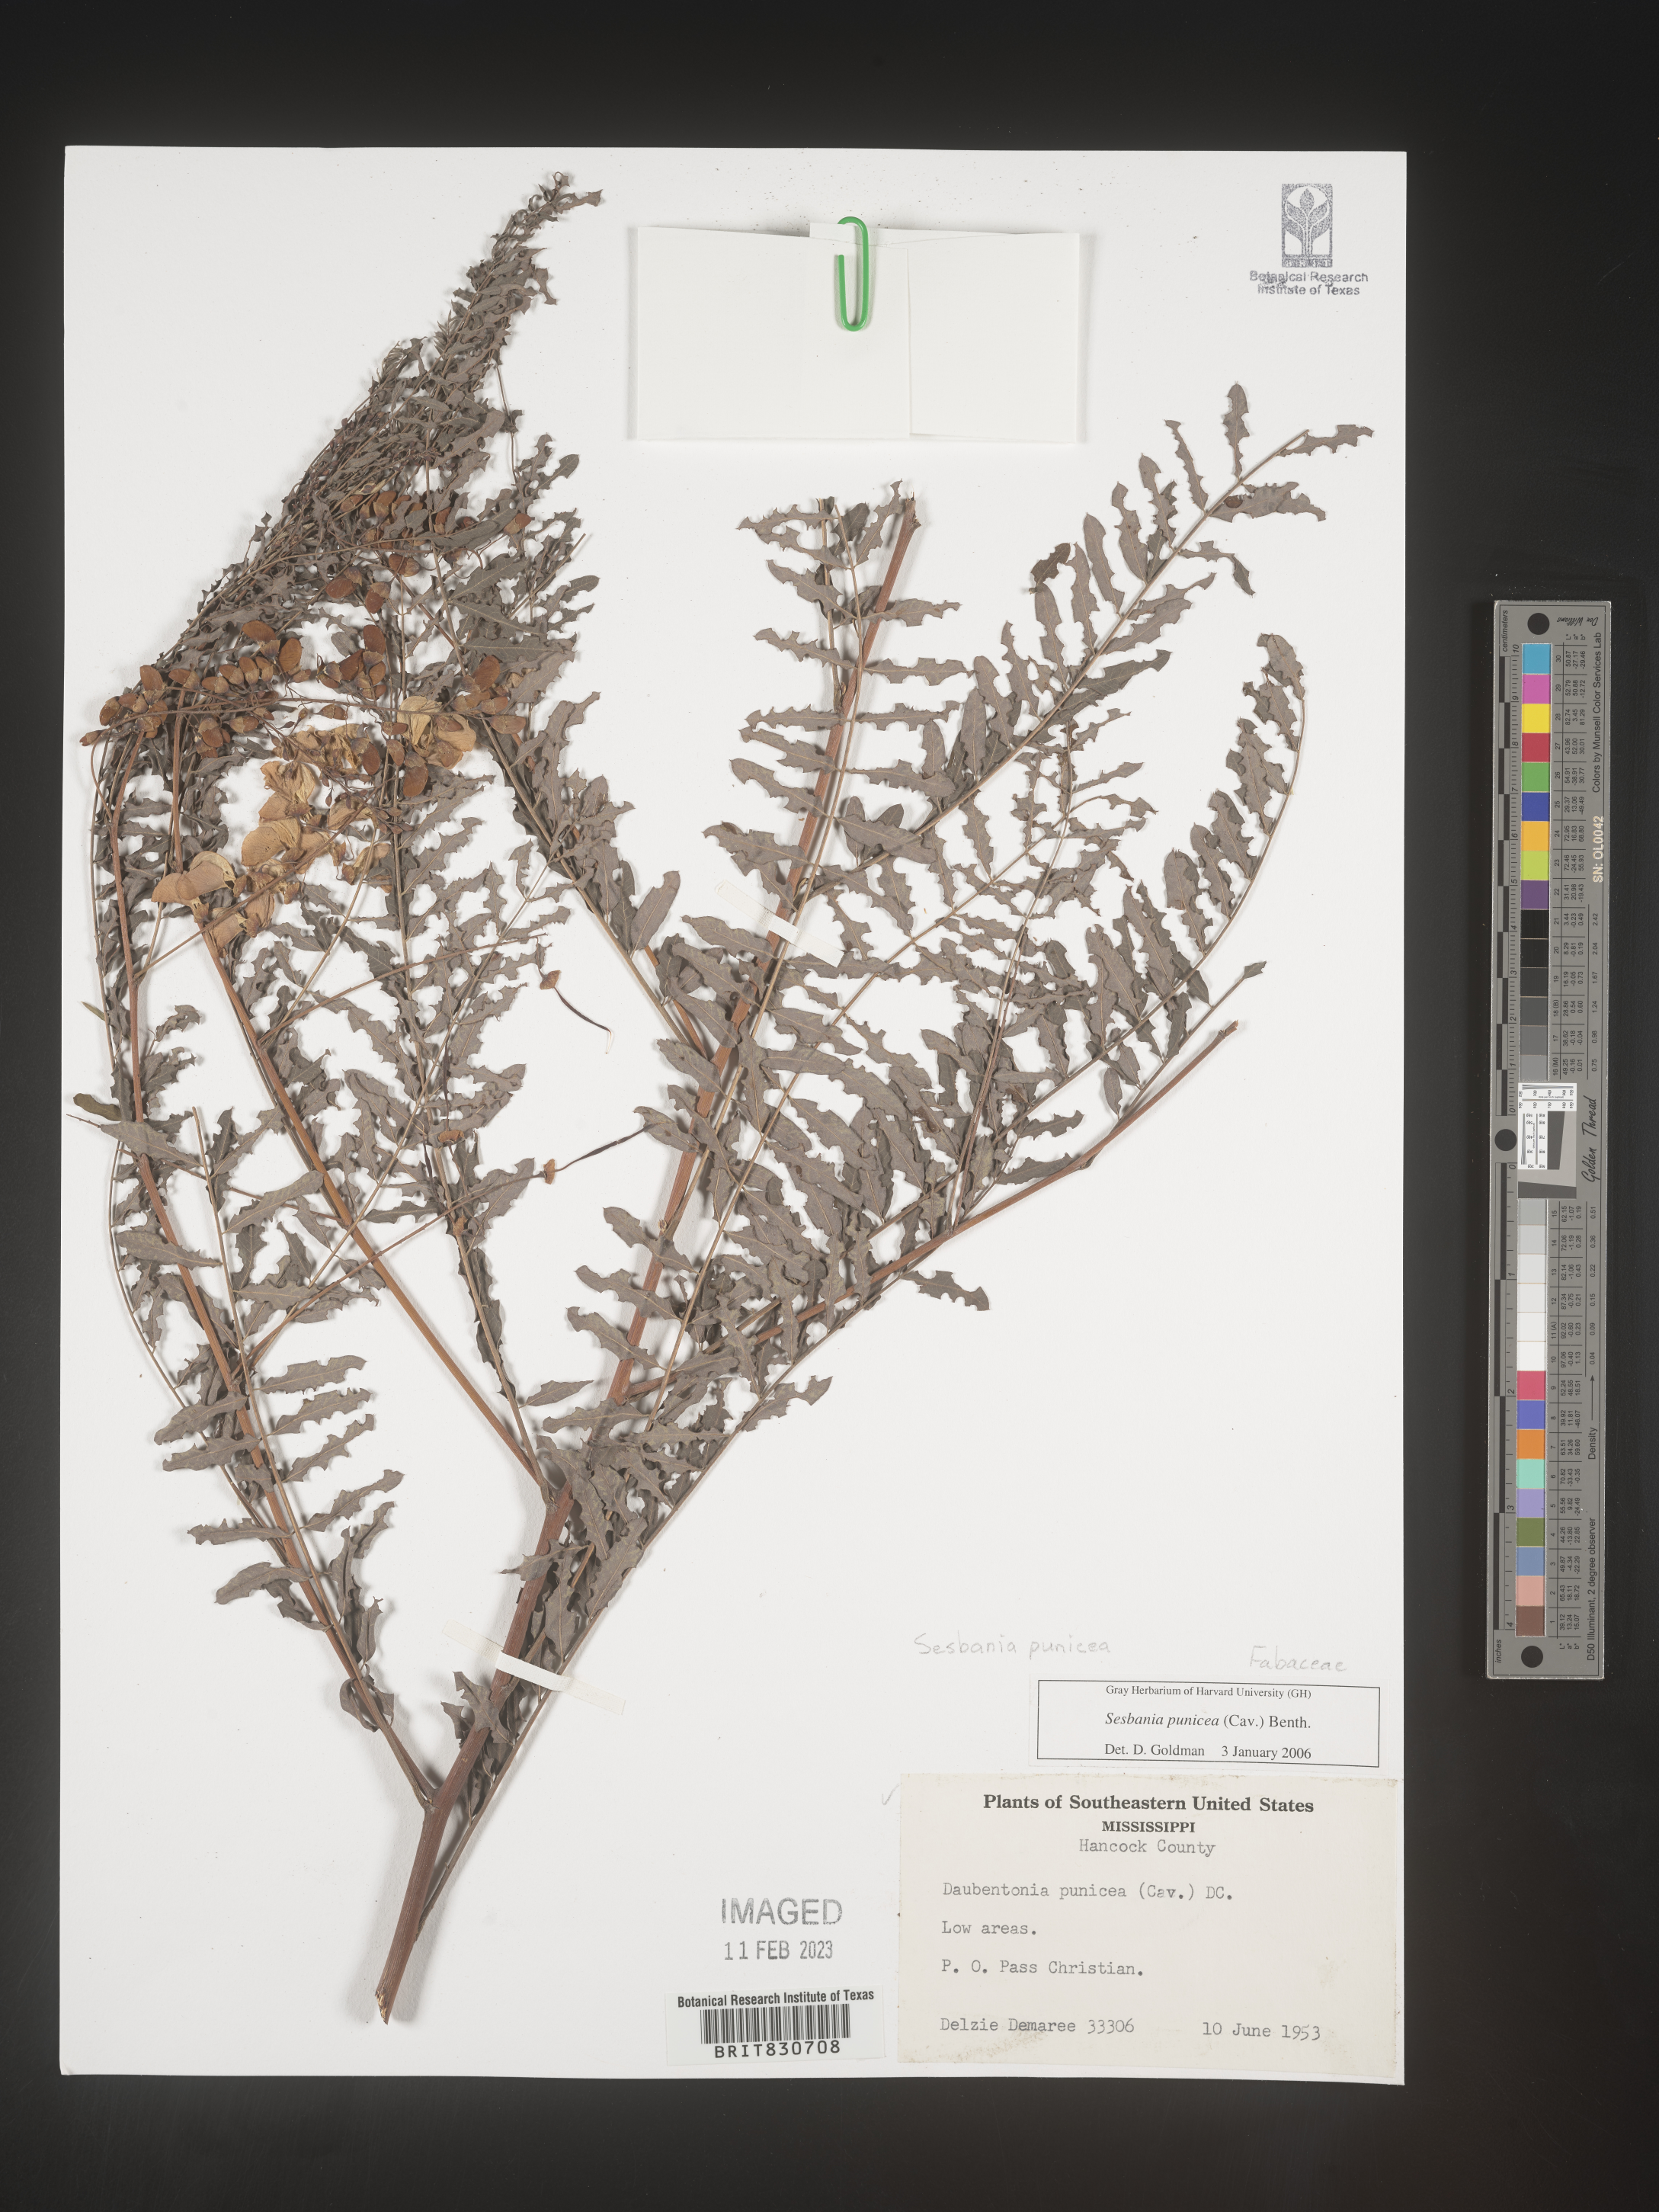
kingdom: Plantae
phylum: Tracheophyta
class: Magnoliopsida
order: Fabales
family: Fabaceae
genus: Sesbania
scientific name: Sesbania punicea
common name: Rattlebox
